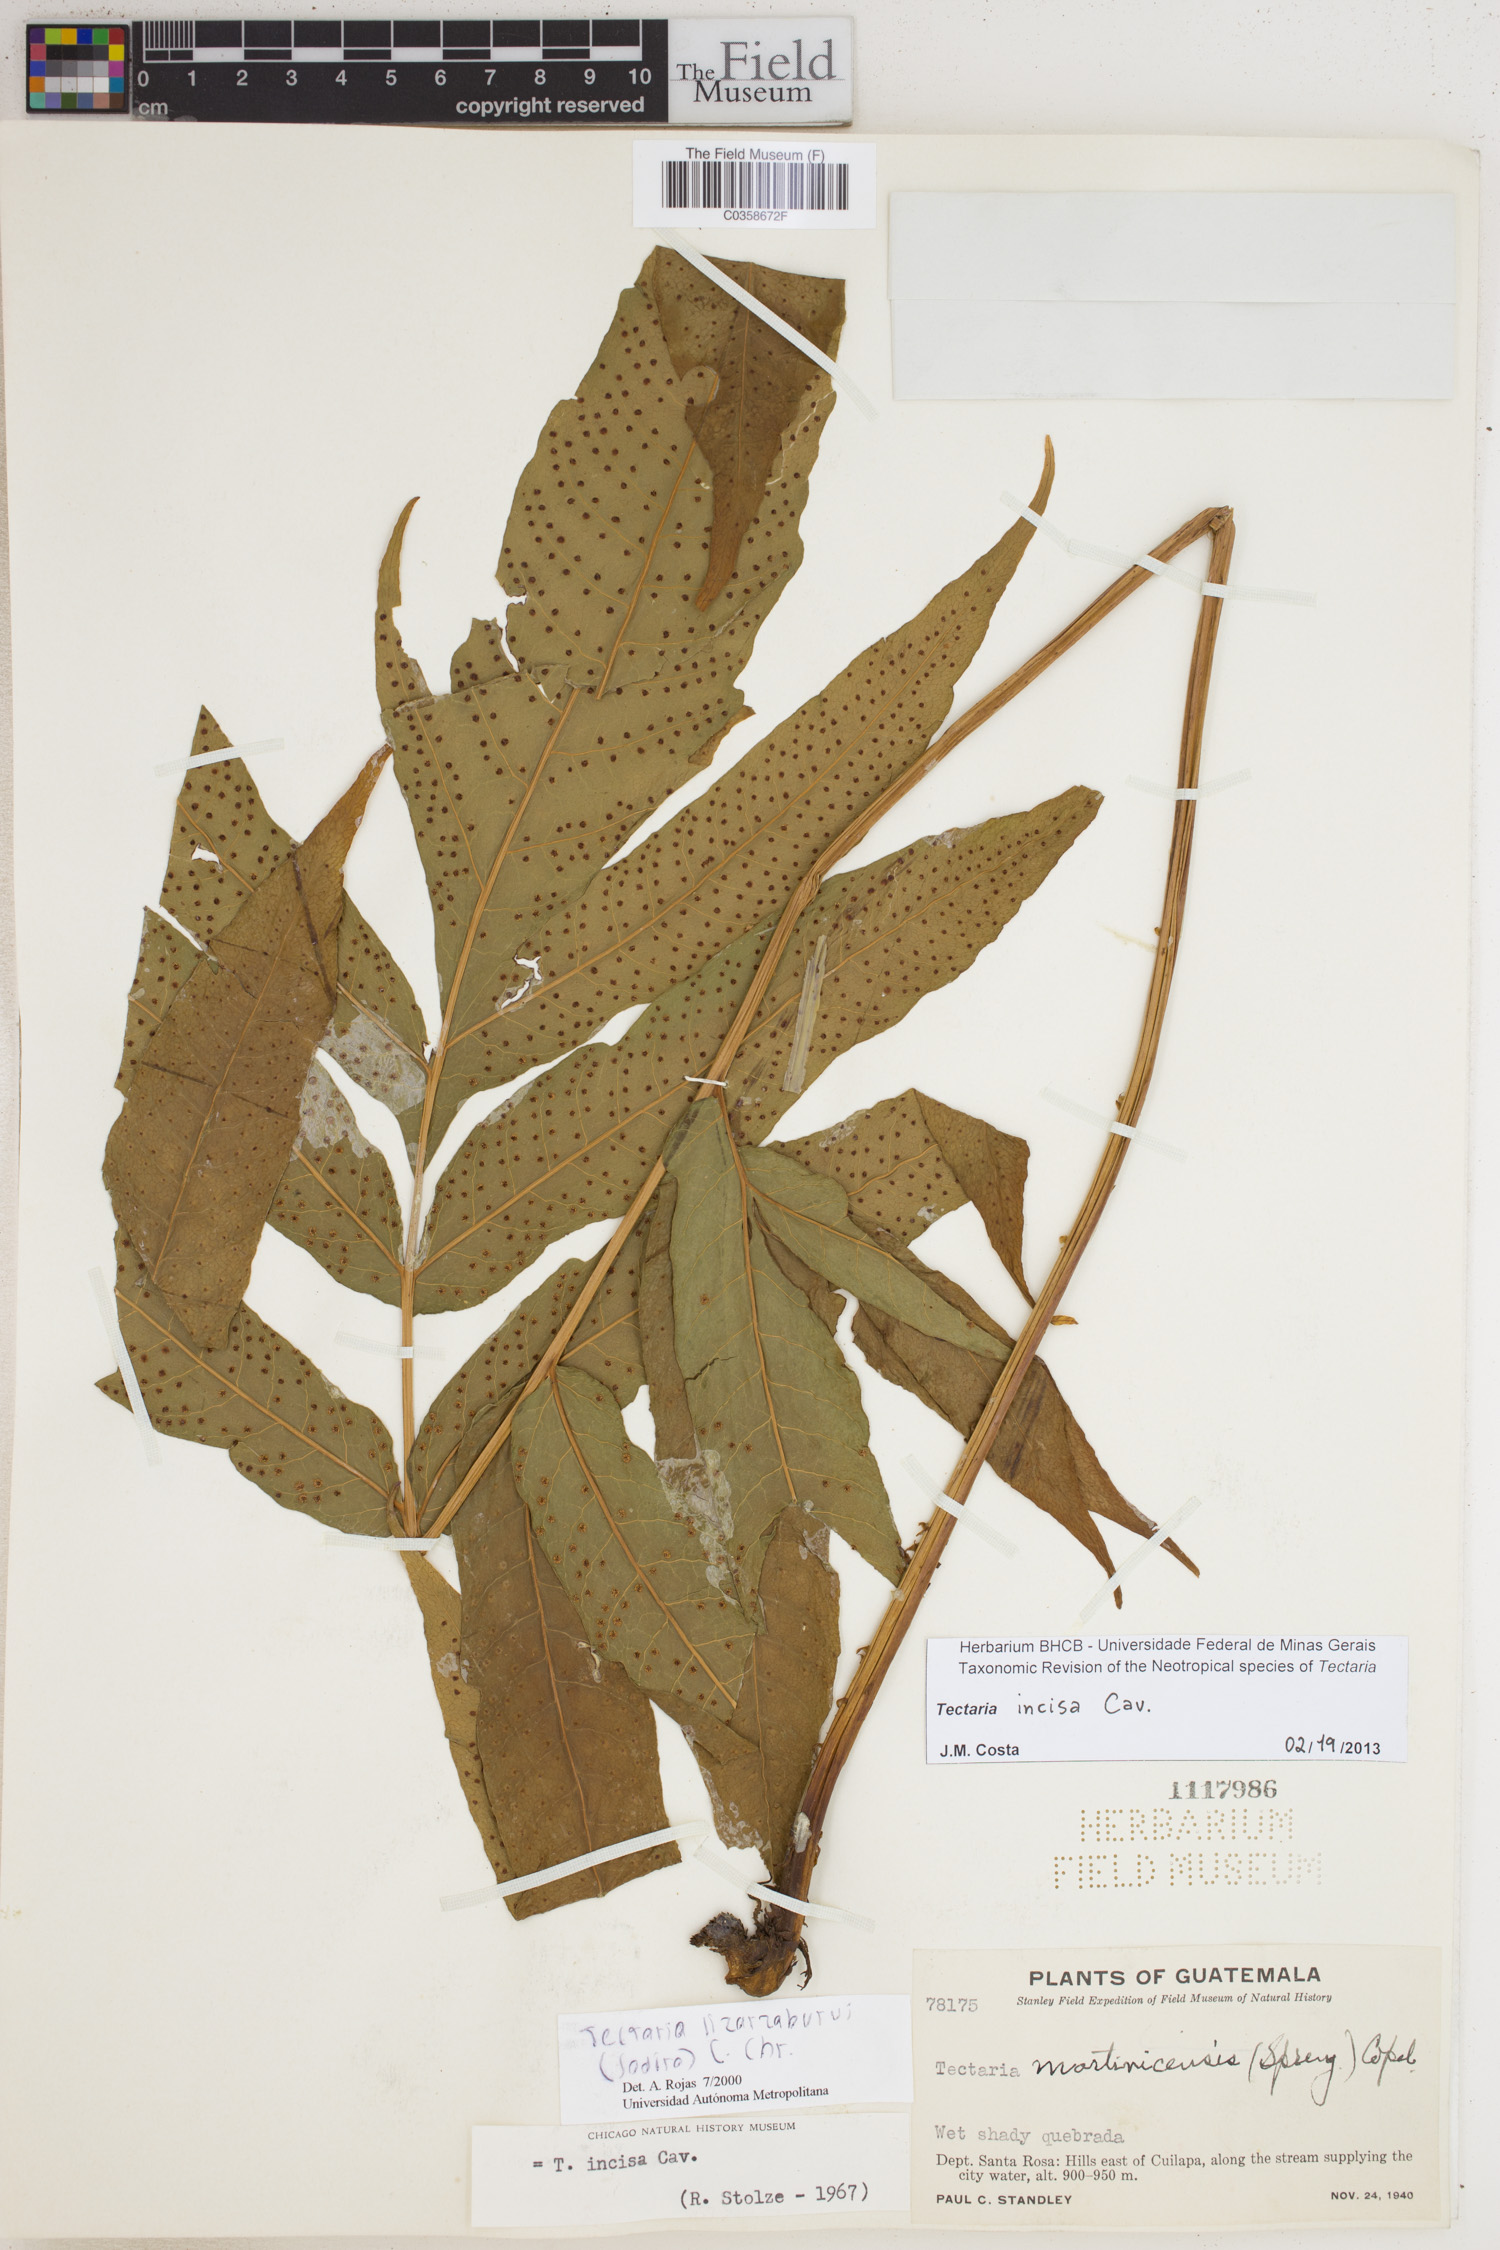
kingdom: Plantae
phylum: Tracheophyta
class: Polypodiopsida
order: Polypodiales
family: Tectariaceae
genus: Tectaria
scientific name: Tectaria incisa
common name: Incised halberd fern
